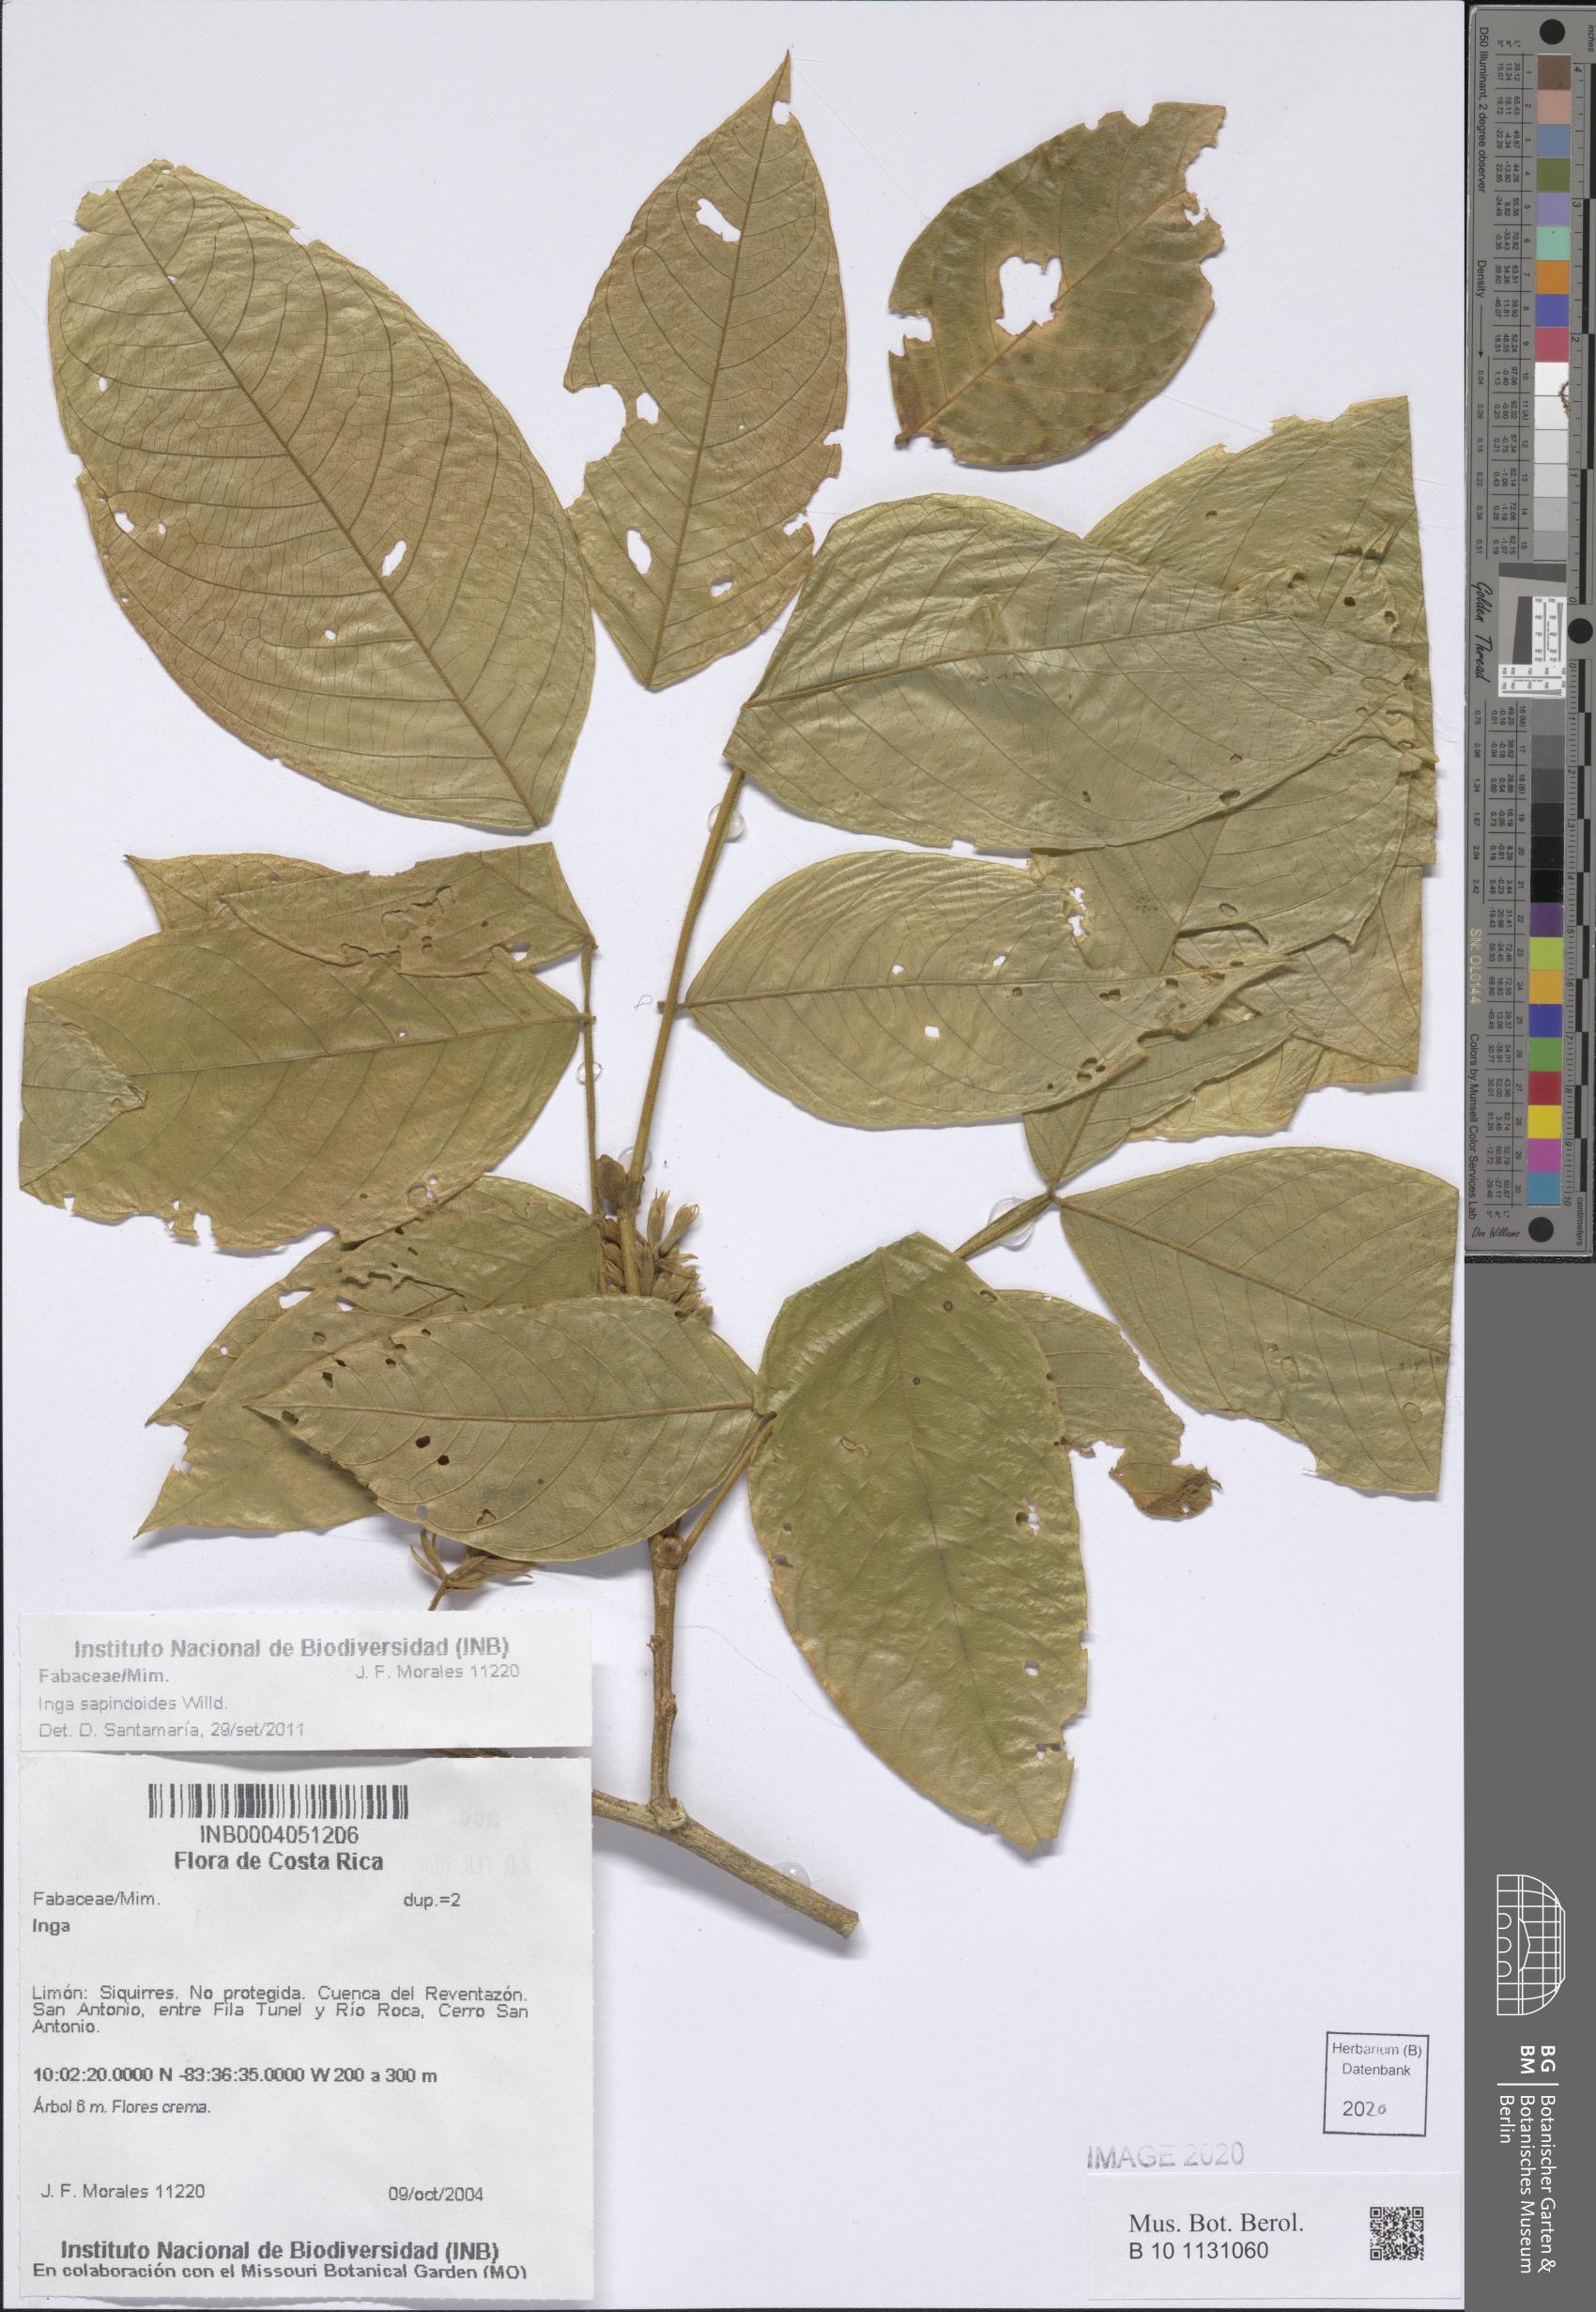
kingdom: Plantae
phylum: Tracheophyta
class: Magnoliopsida
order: Fabales
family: Fabaceae
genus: Inga
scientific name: Inga sapindoides
